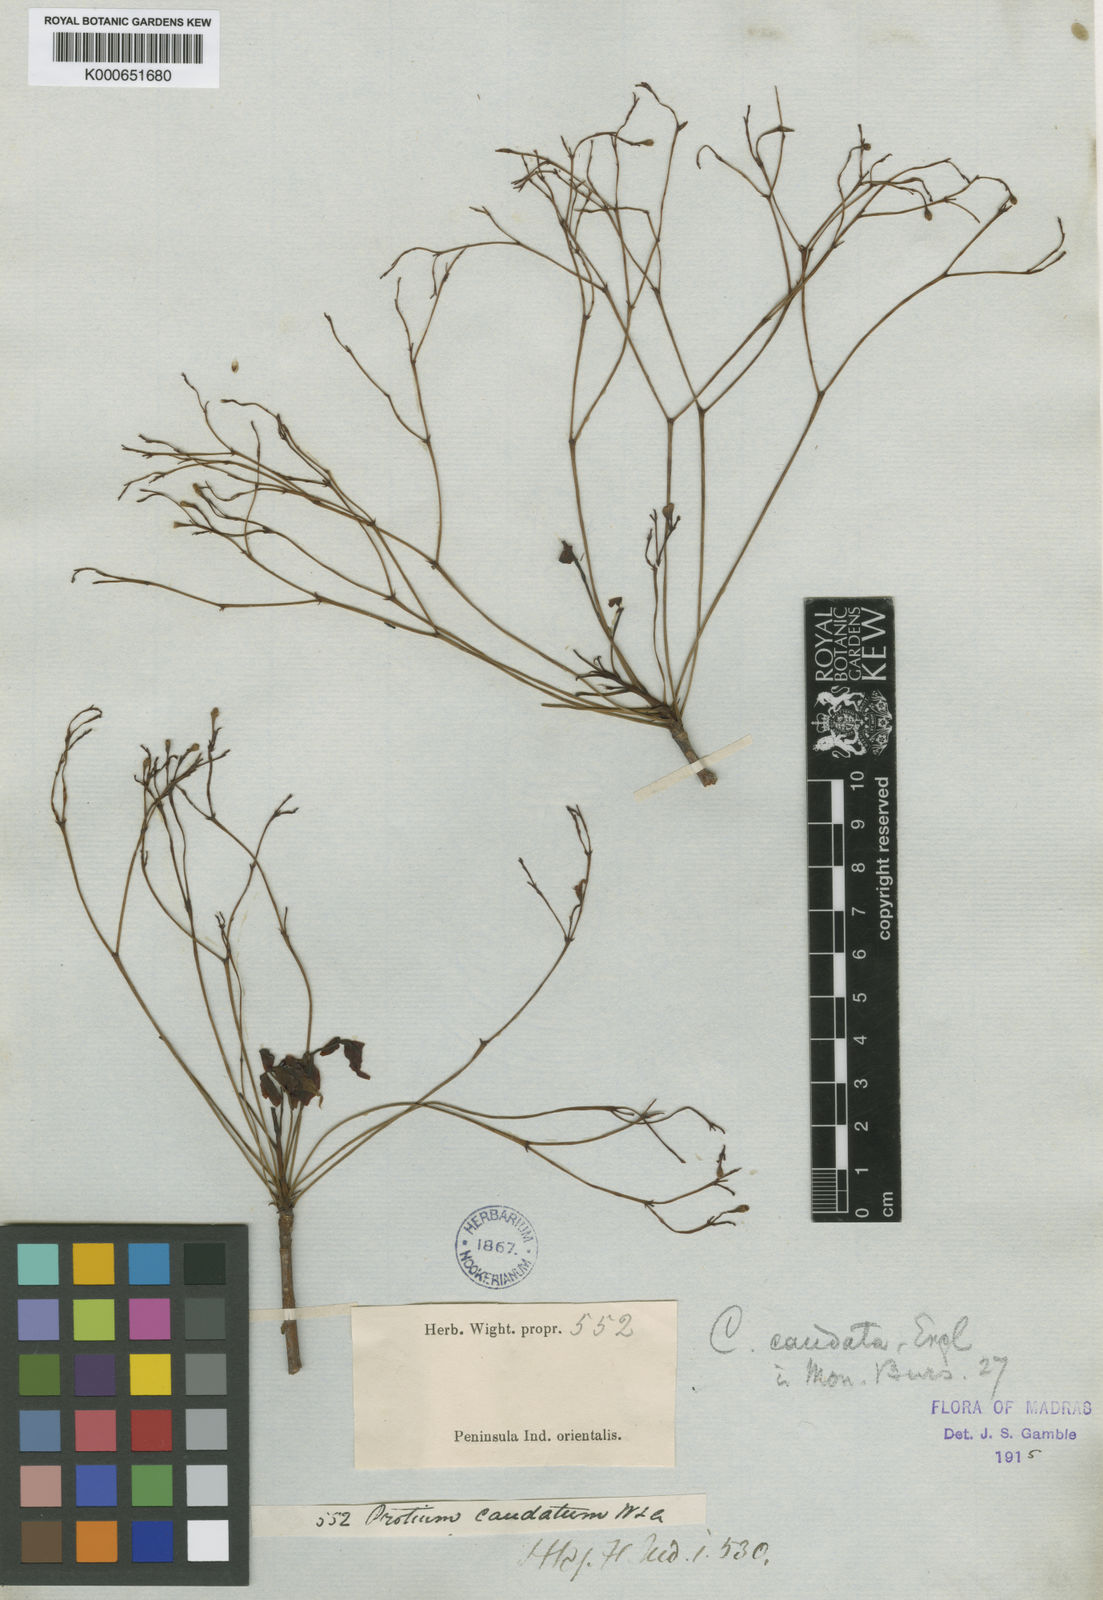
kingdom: Plantae
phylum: Tracheophyta
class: Magnoliopsida
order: Sapindales
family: Burseraceae
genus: Commiphora
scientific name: Commiphora caudata
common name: Hill-mango
